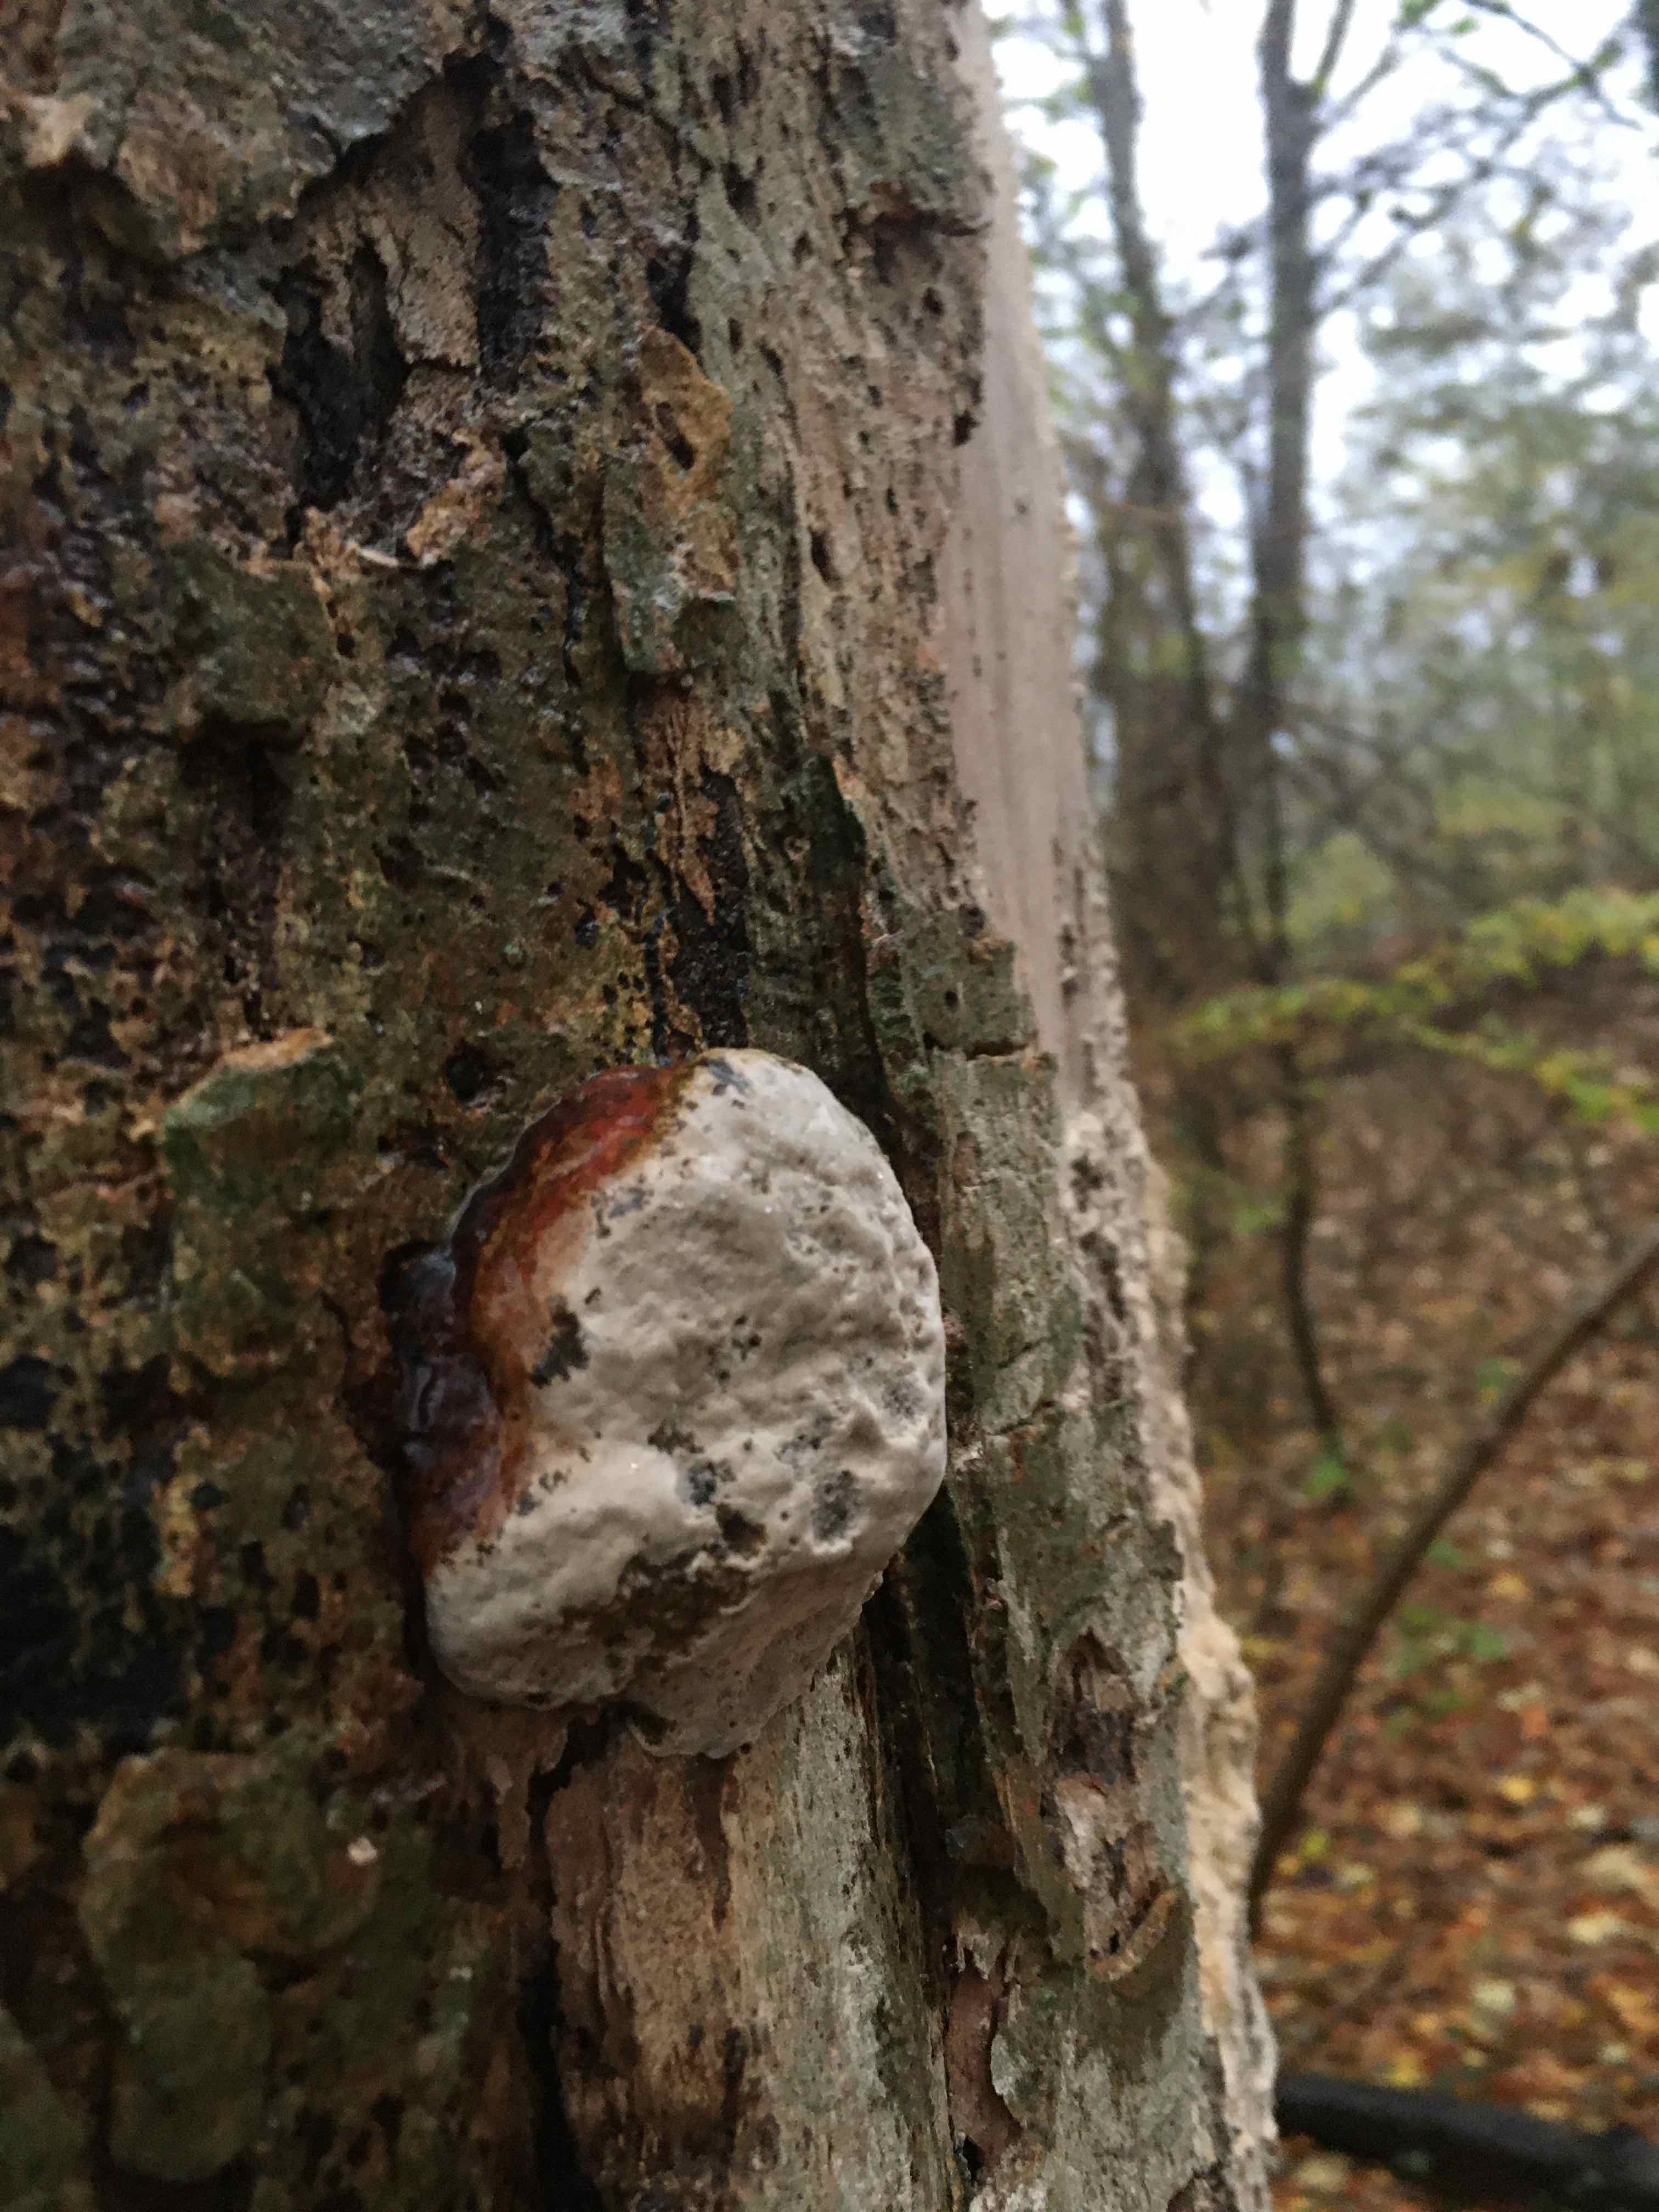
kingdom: Fungi
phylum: Basidiomycota
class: Agaricomycetes
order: Polyporales
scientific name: Polyporales
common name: poresvampordenen
